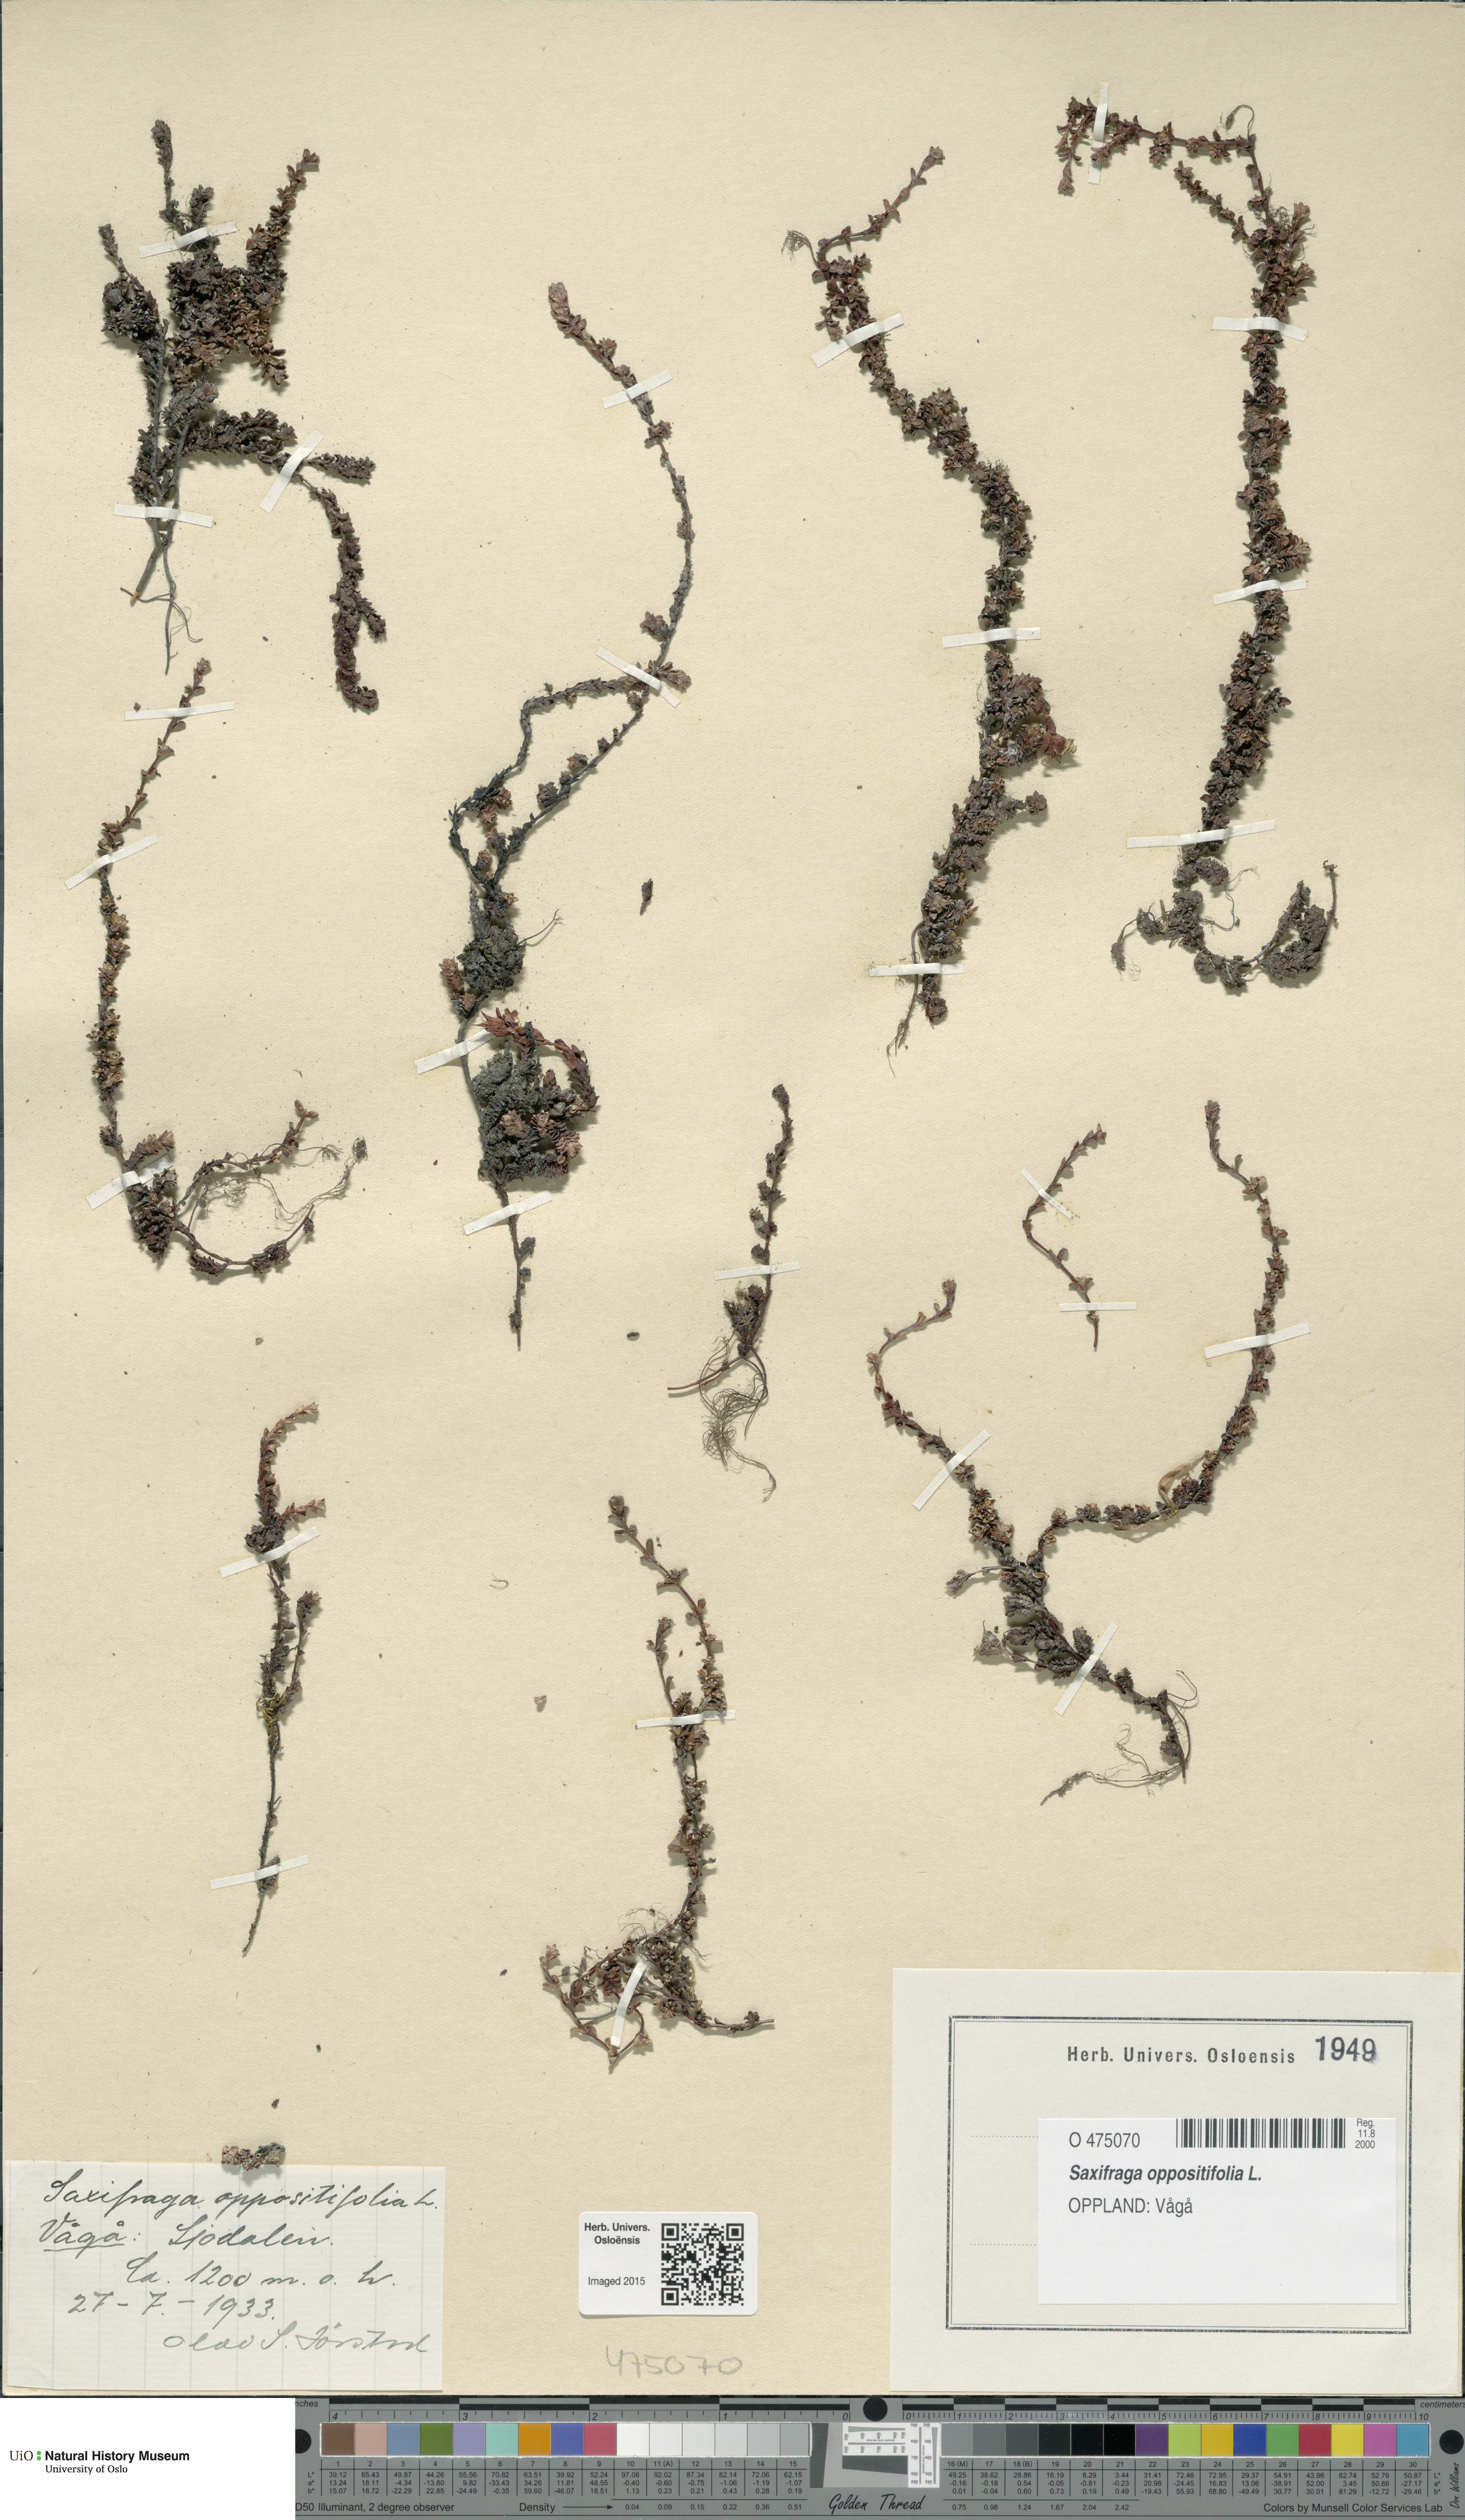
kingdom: Plantae
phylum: Tracheophyta
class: Magnoliopsida
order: Saxifragales
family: Saxifragaceae
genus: Saxifraga
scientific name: Saxifraga oppositifolia
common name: Purple saxifrage
